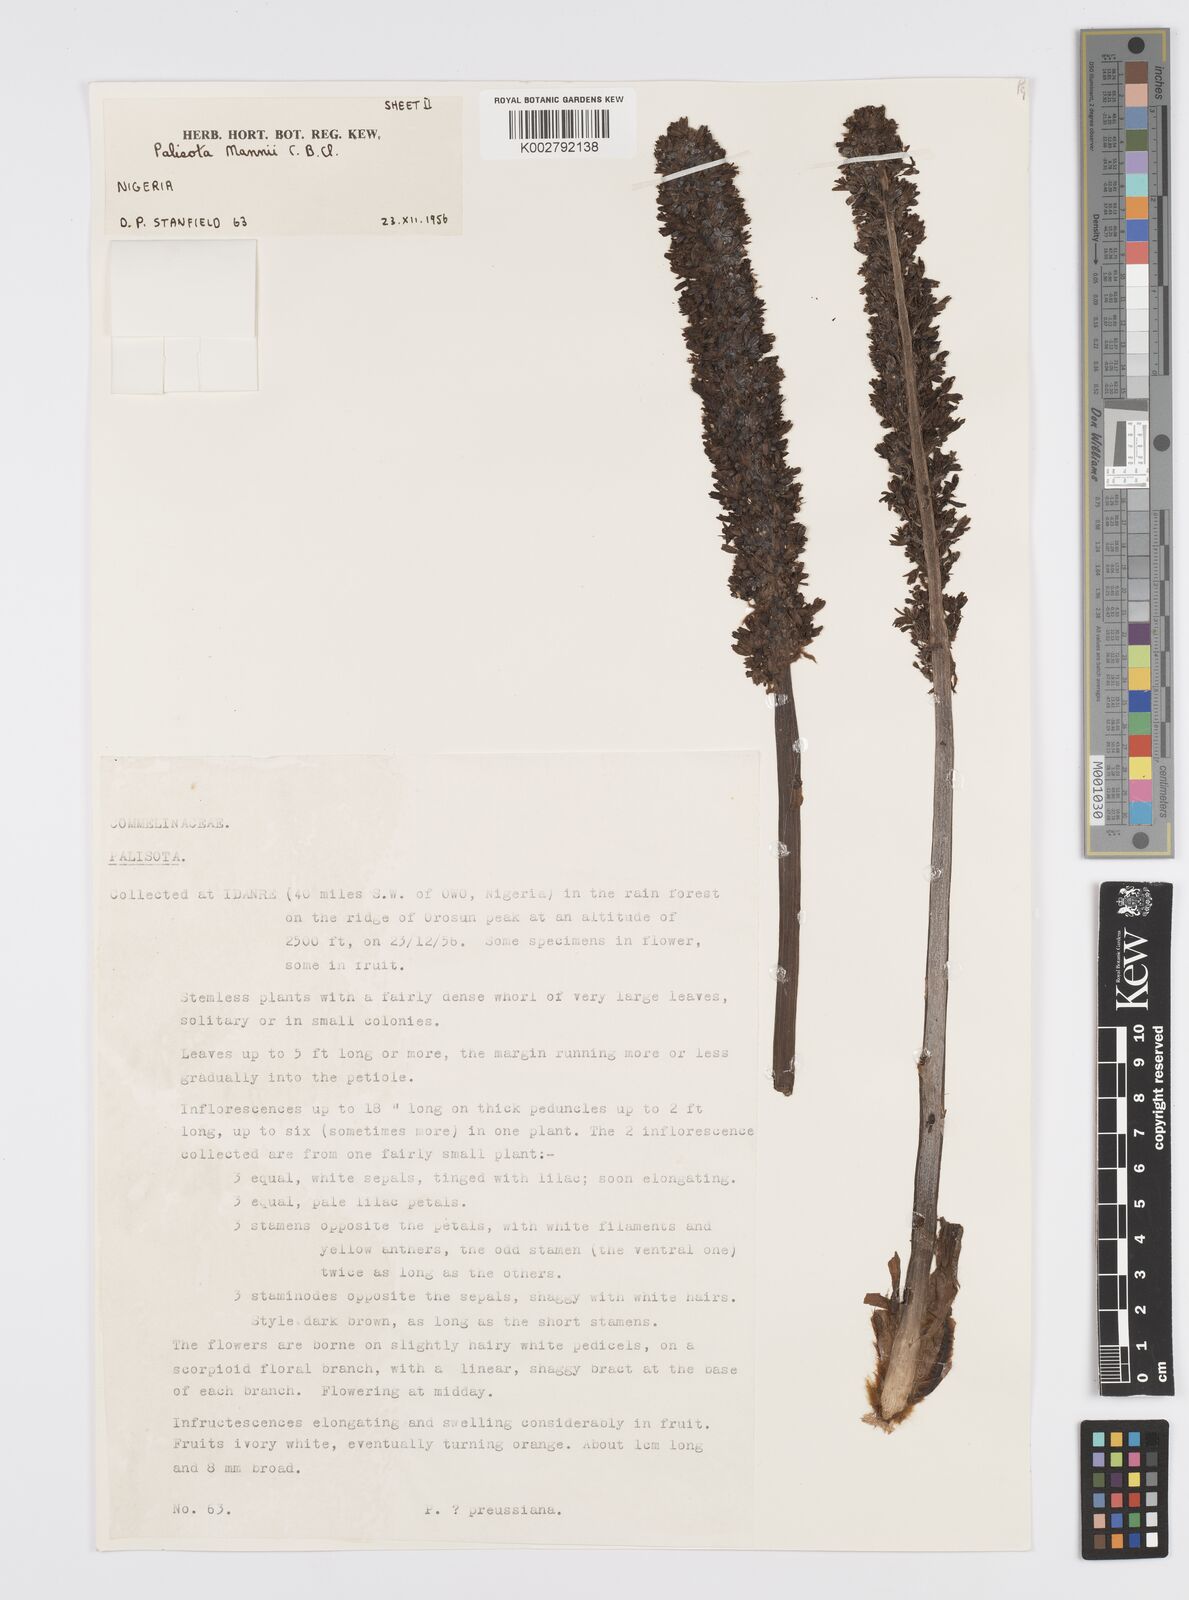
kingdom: Plantae
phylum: Tracheophyta
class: Liliopsida
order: Commelinales
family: Commelinaceae
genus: Palisota
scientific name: Palisota mannii
